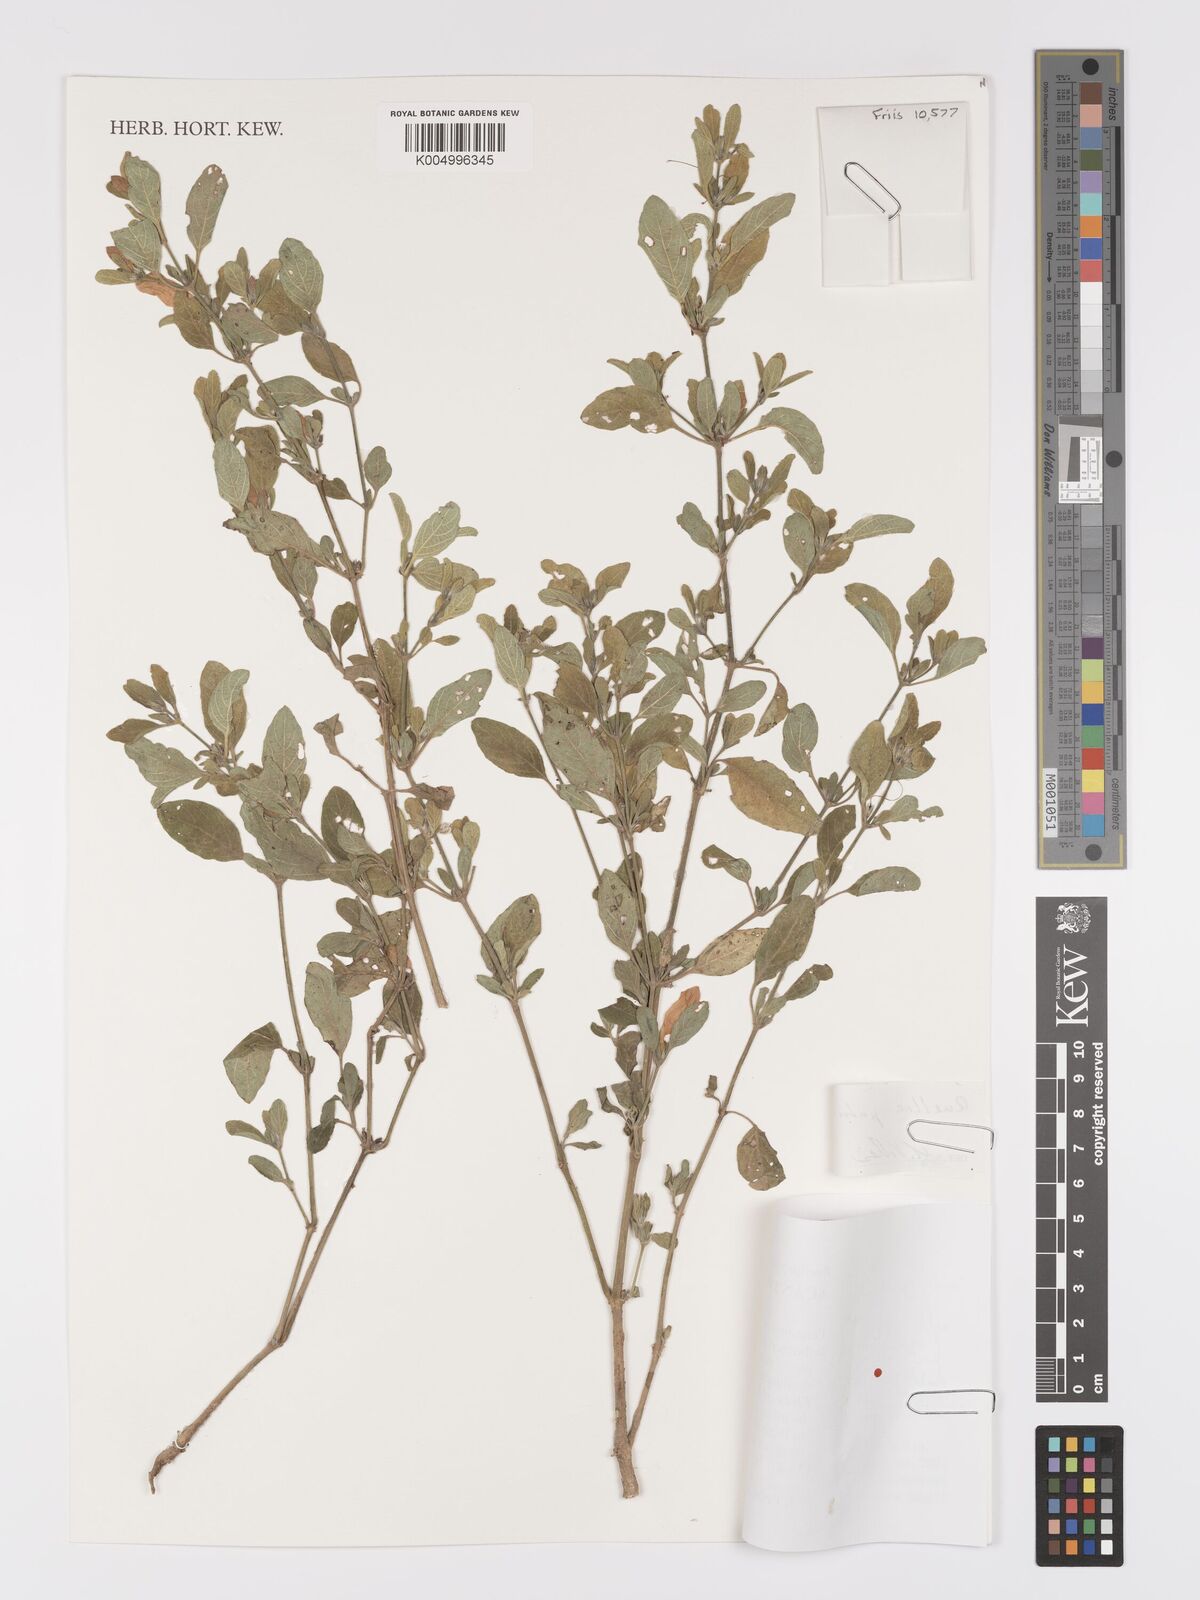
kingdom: Plantae
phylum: Tracheophyta
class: Magnoliopsida
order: Lamiales
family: Acanthaceae
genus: Ruellia
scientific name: Ruellia patula
